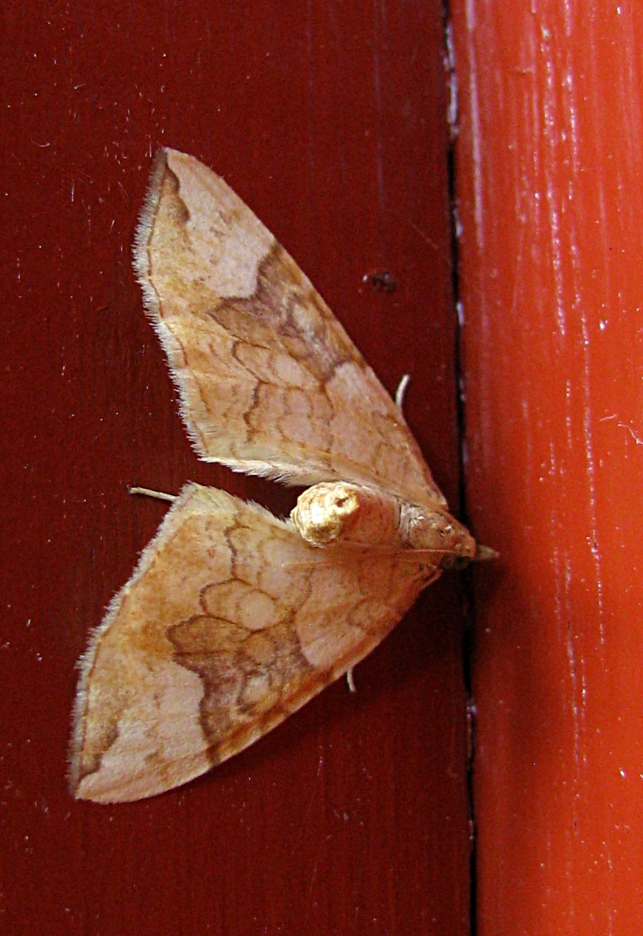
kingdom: Animalia
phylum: Arthropoda
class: Insecta
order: Lepidoptera
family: Geometridae
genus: Eulithis
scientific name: Eulithis populata
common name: Northern spinach
